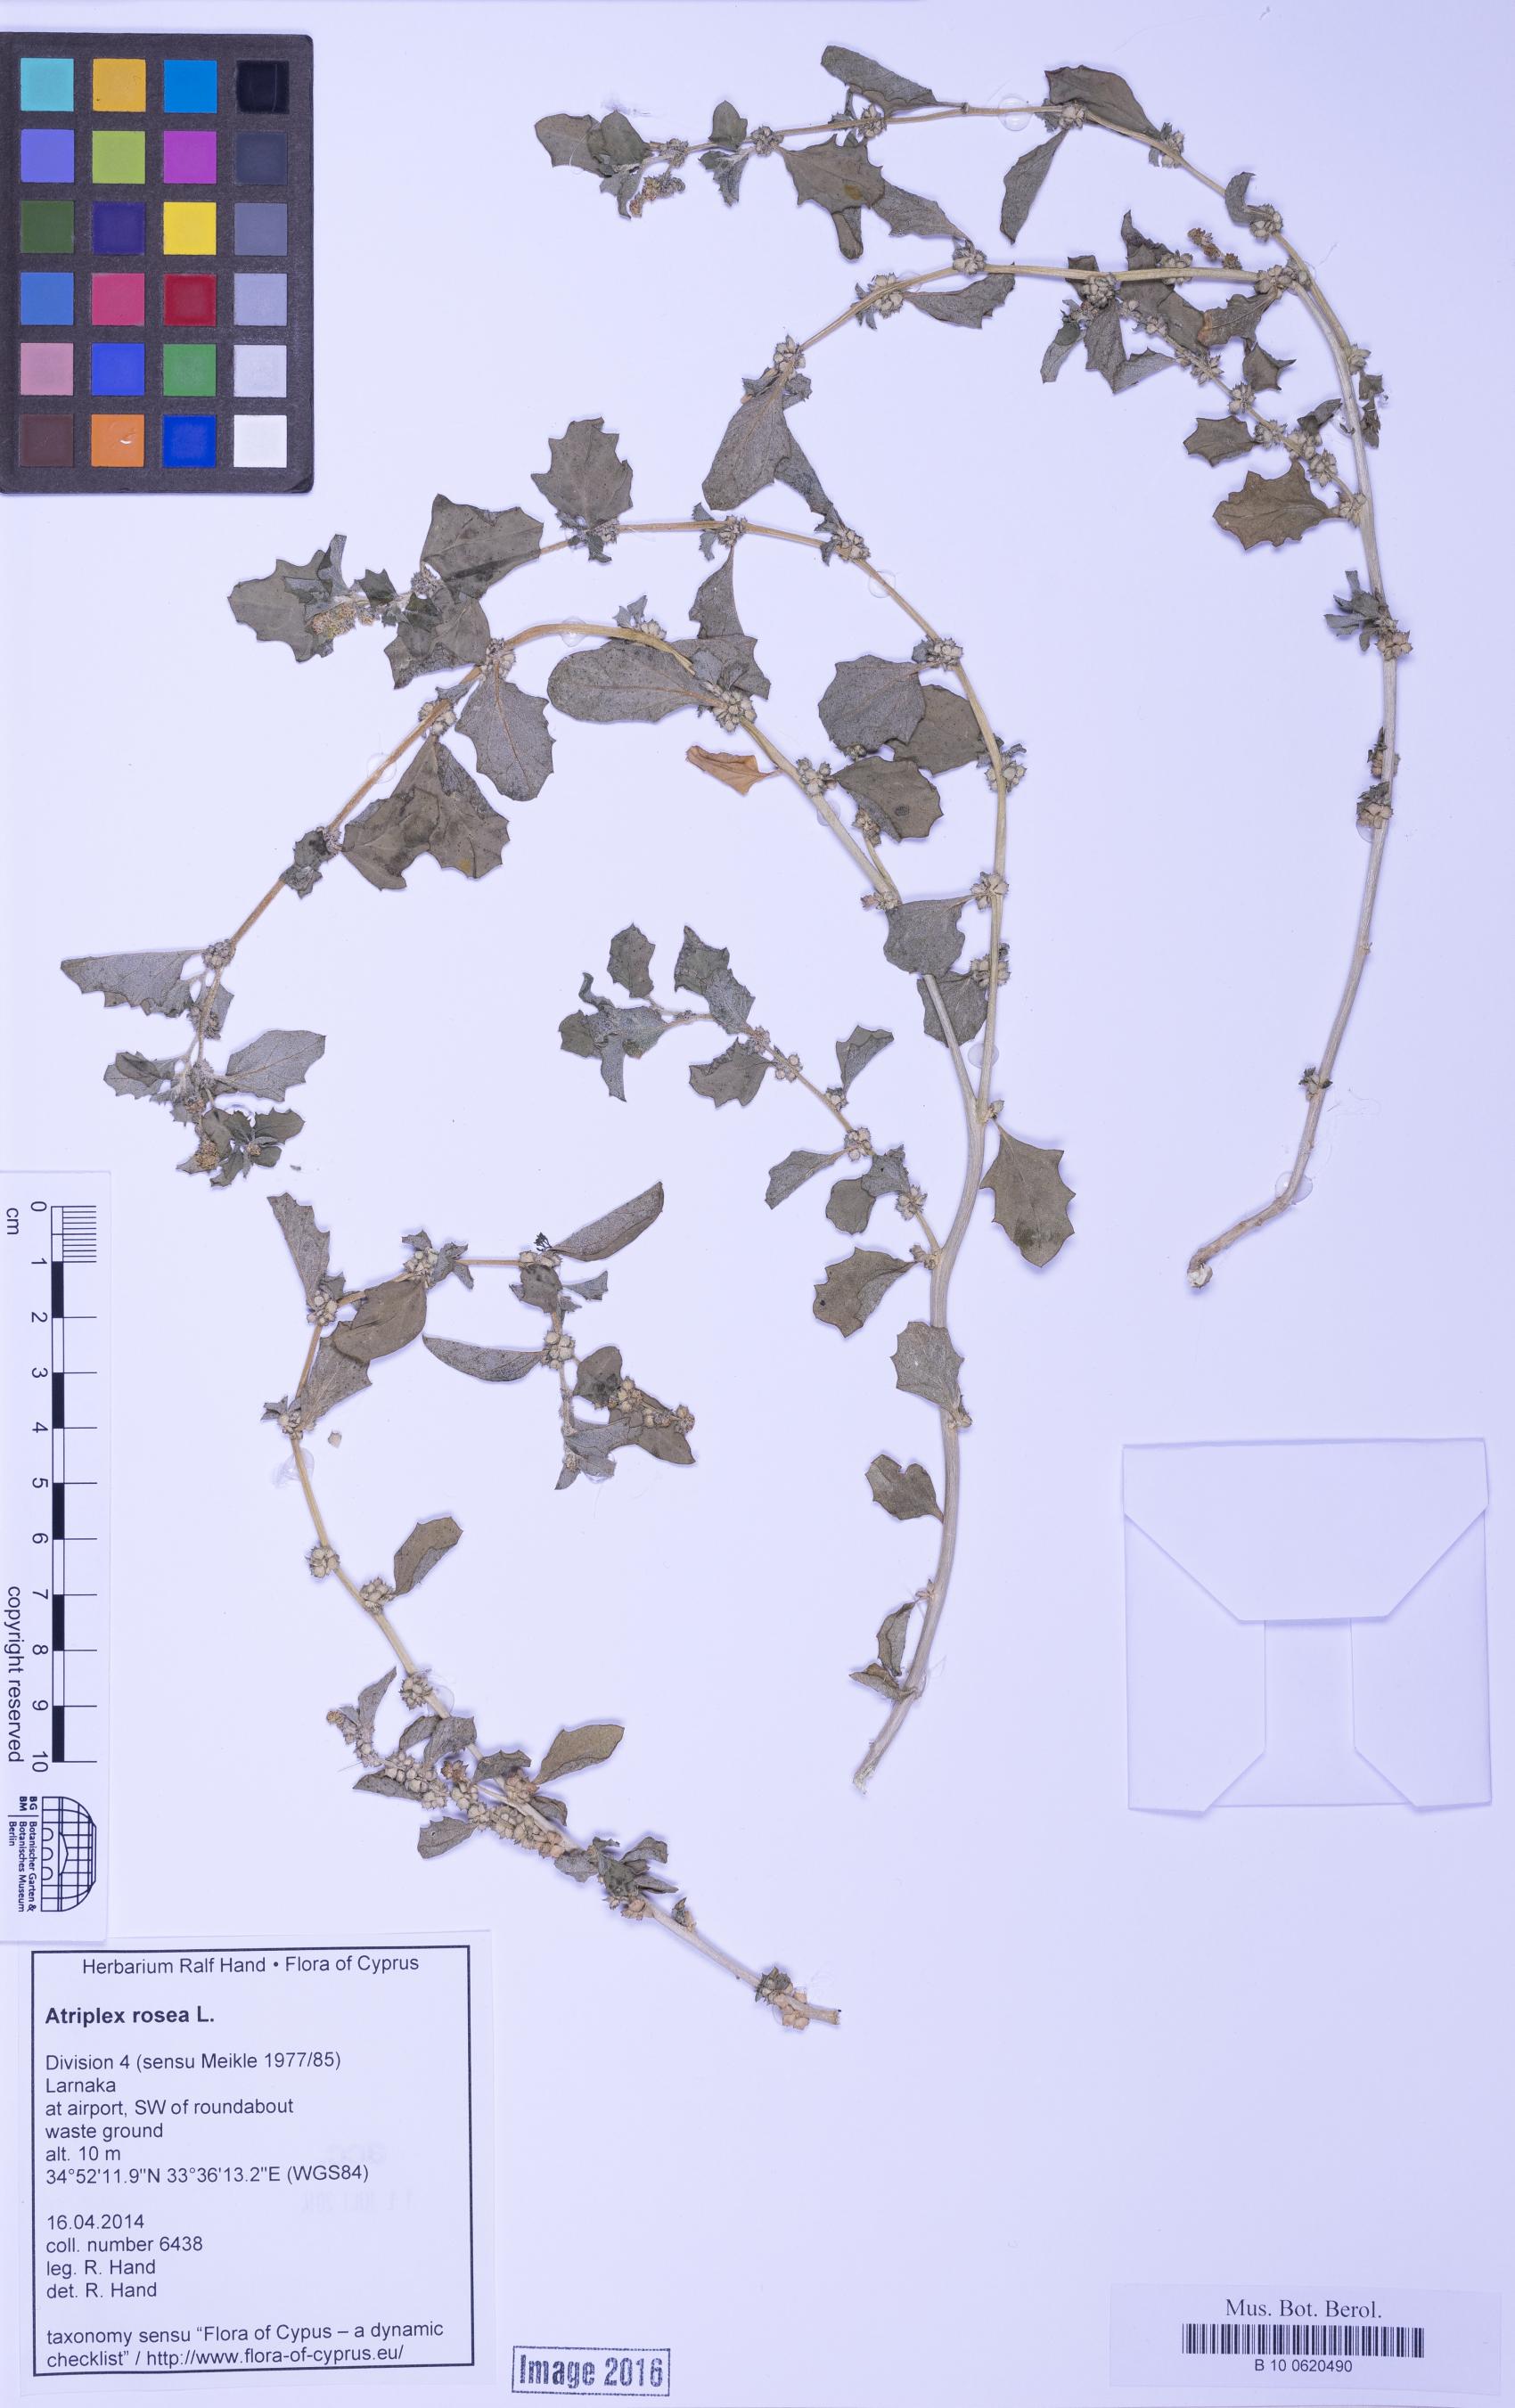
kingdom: Plantae
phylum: Tracheophyta
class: Magnoliopsida
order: Caryophyllales
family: Amaranthaceae
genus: Atriplex
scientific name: Atriplex suberecta
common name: Australian orache
